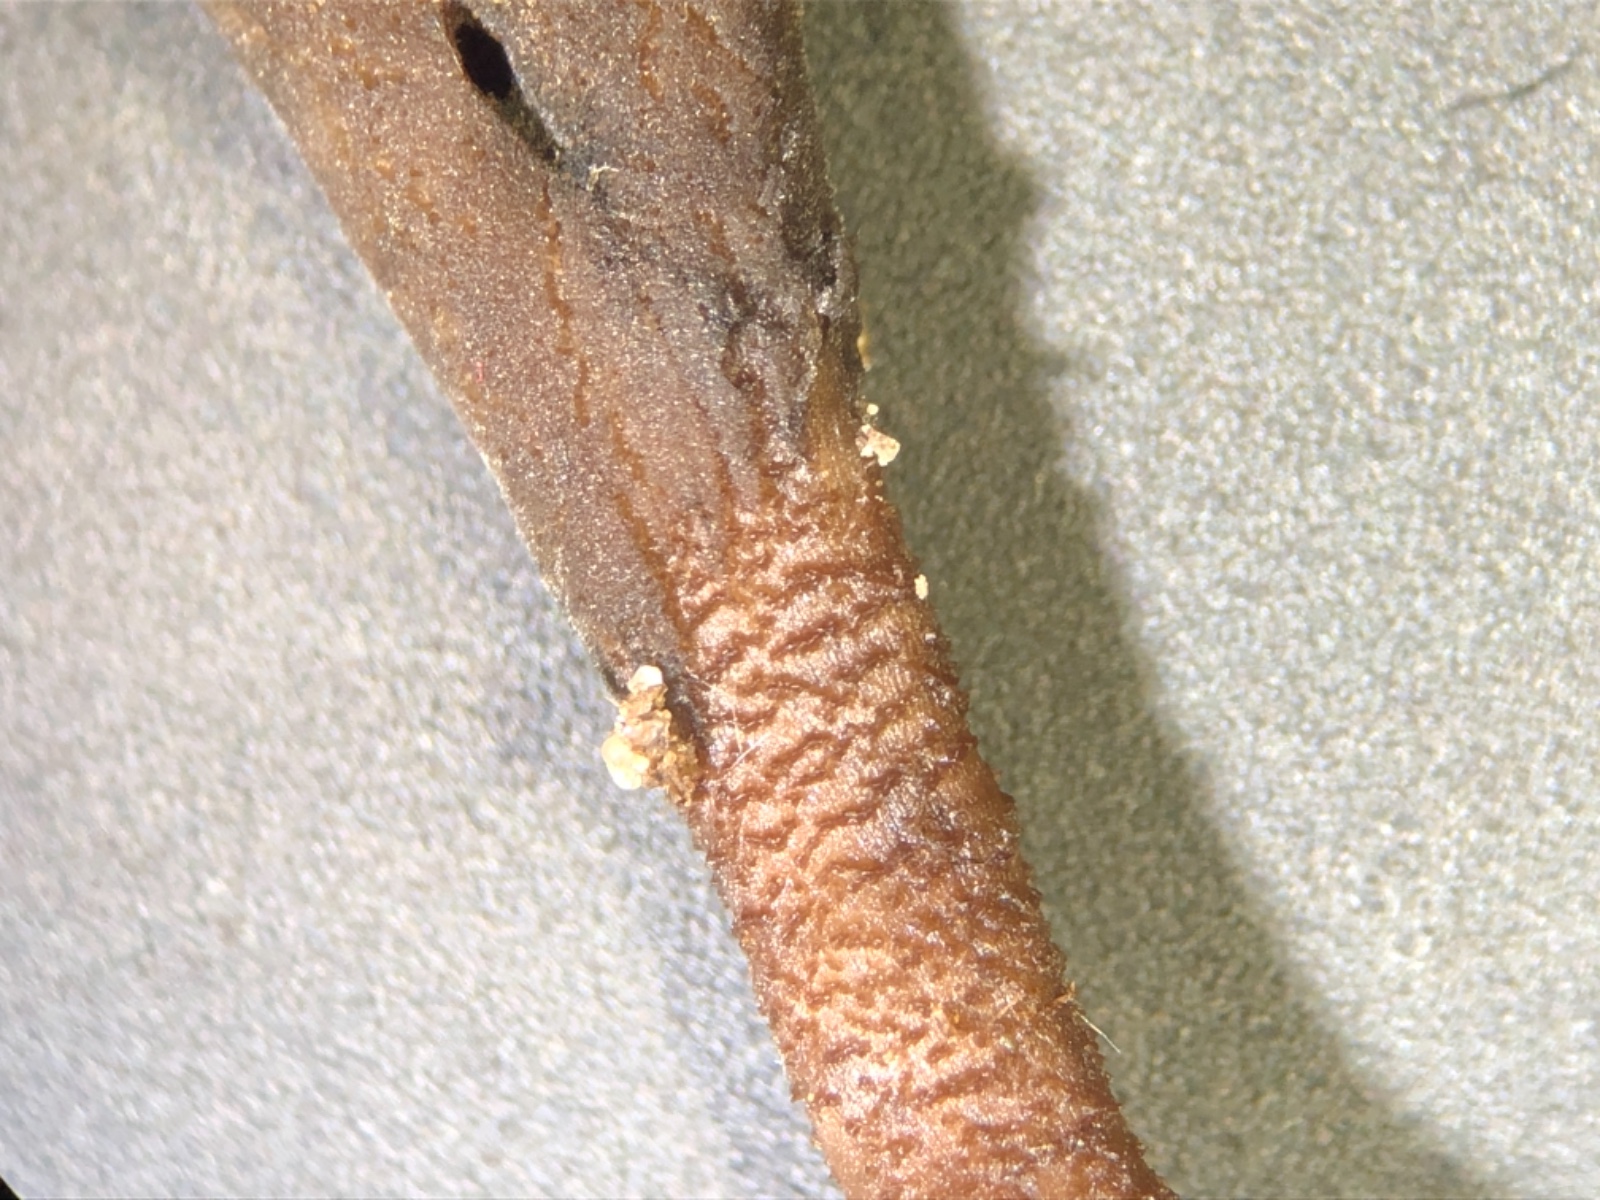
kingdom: Fungi
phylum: Ascomycota
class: Geoglossomycetes
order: Geoglossales
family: Geoglossaceae
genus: Hemileucoglossum
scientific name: Hemileucoglossum elongatum
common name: småsporet jordtunge
